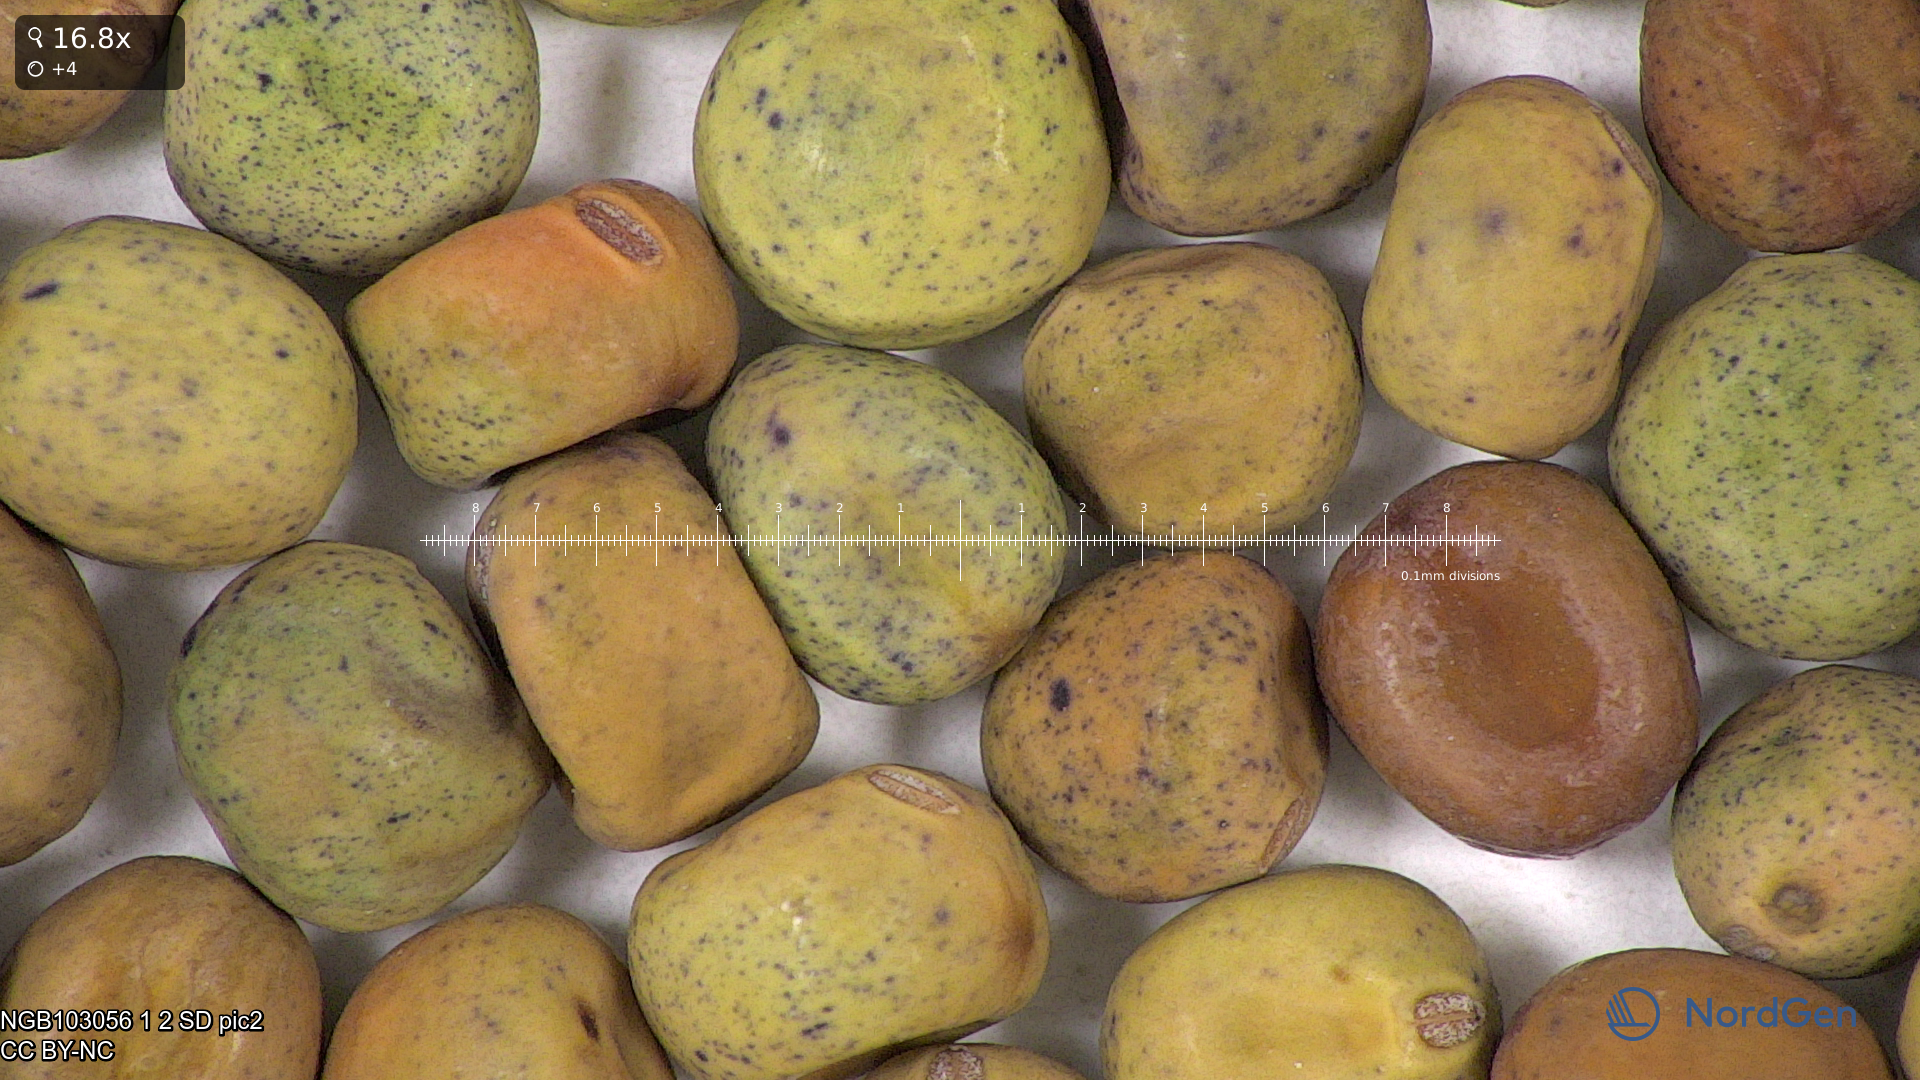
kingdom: Plantae
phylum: Tracheophyta
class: Magnoliopsida
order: Fabales
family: Fabaceae
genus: Lathyrus
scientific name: Lathyrus oleraceus
